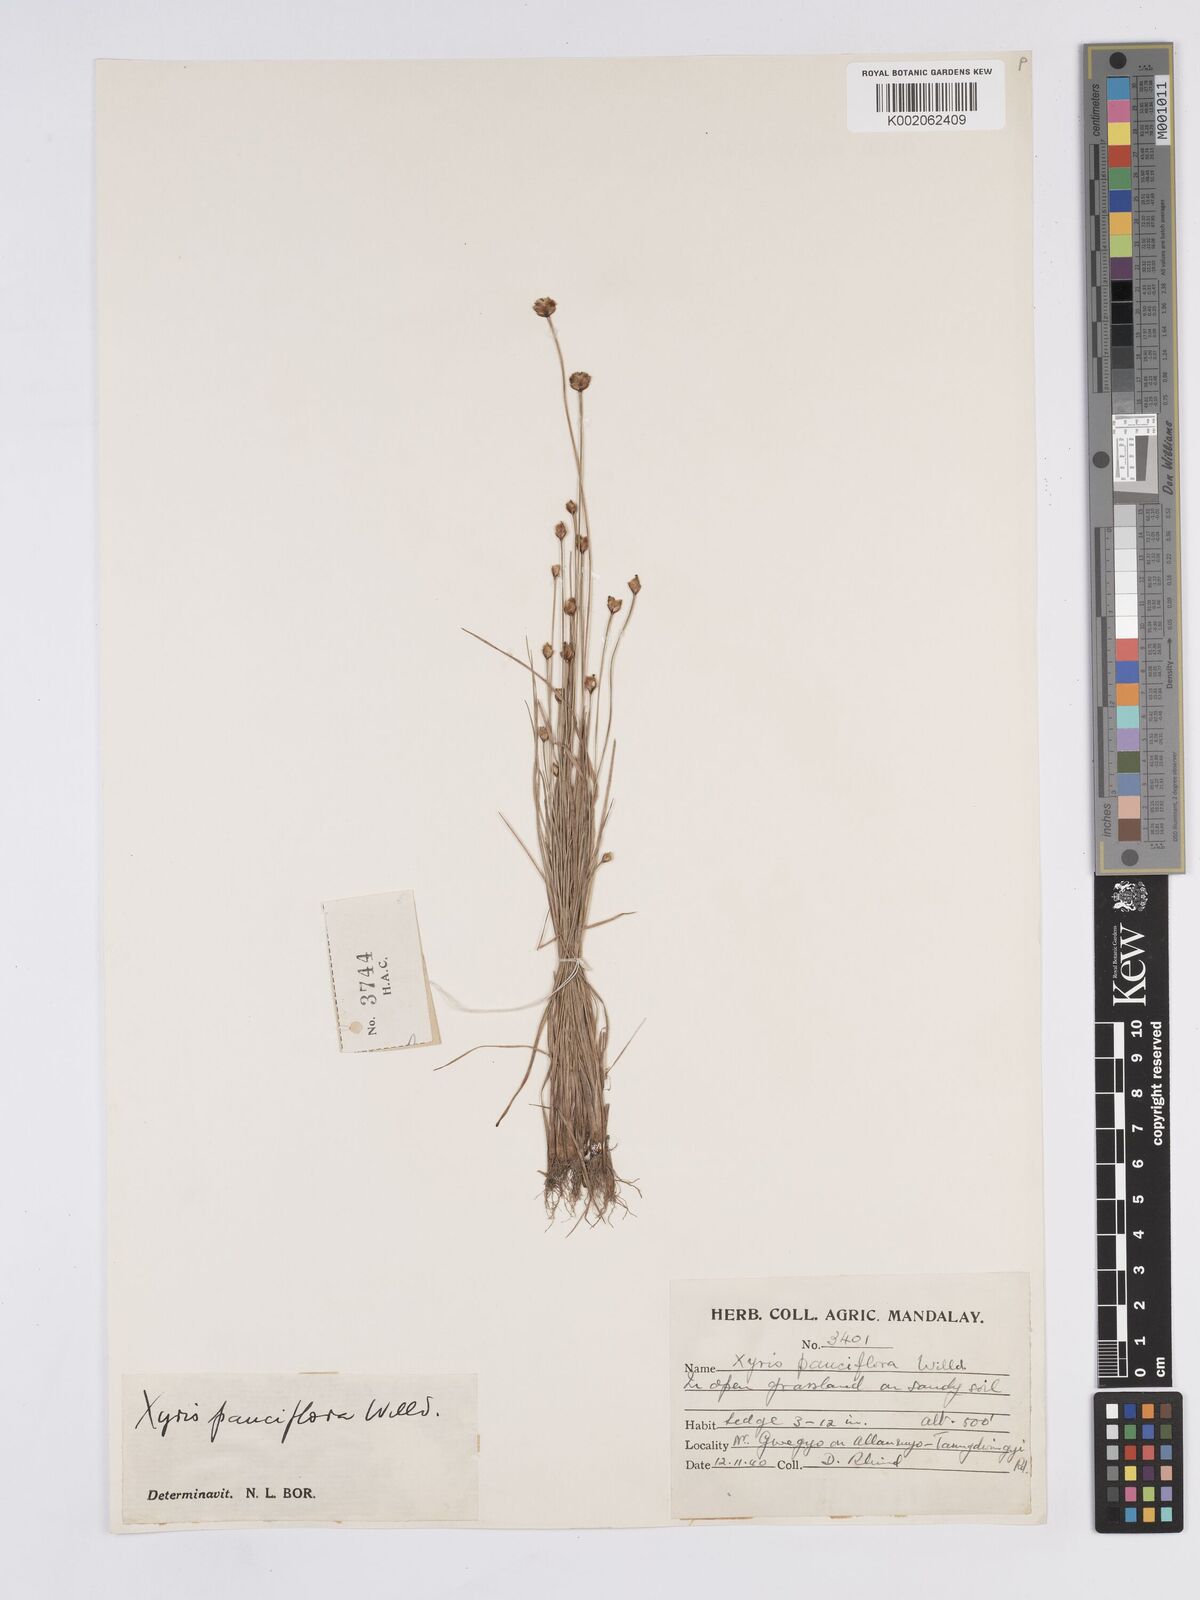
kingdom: Plantae
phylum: Tracheophyta
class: Liliopsida
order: Poales
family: Xyridaceae
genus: Xyris
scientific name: Xyris pauciflora
